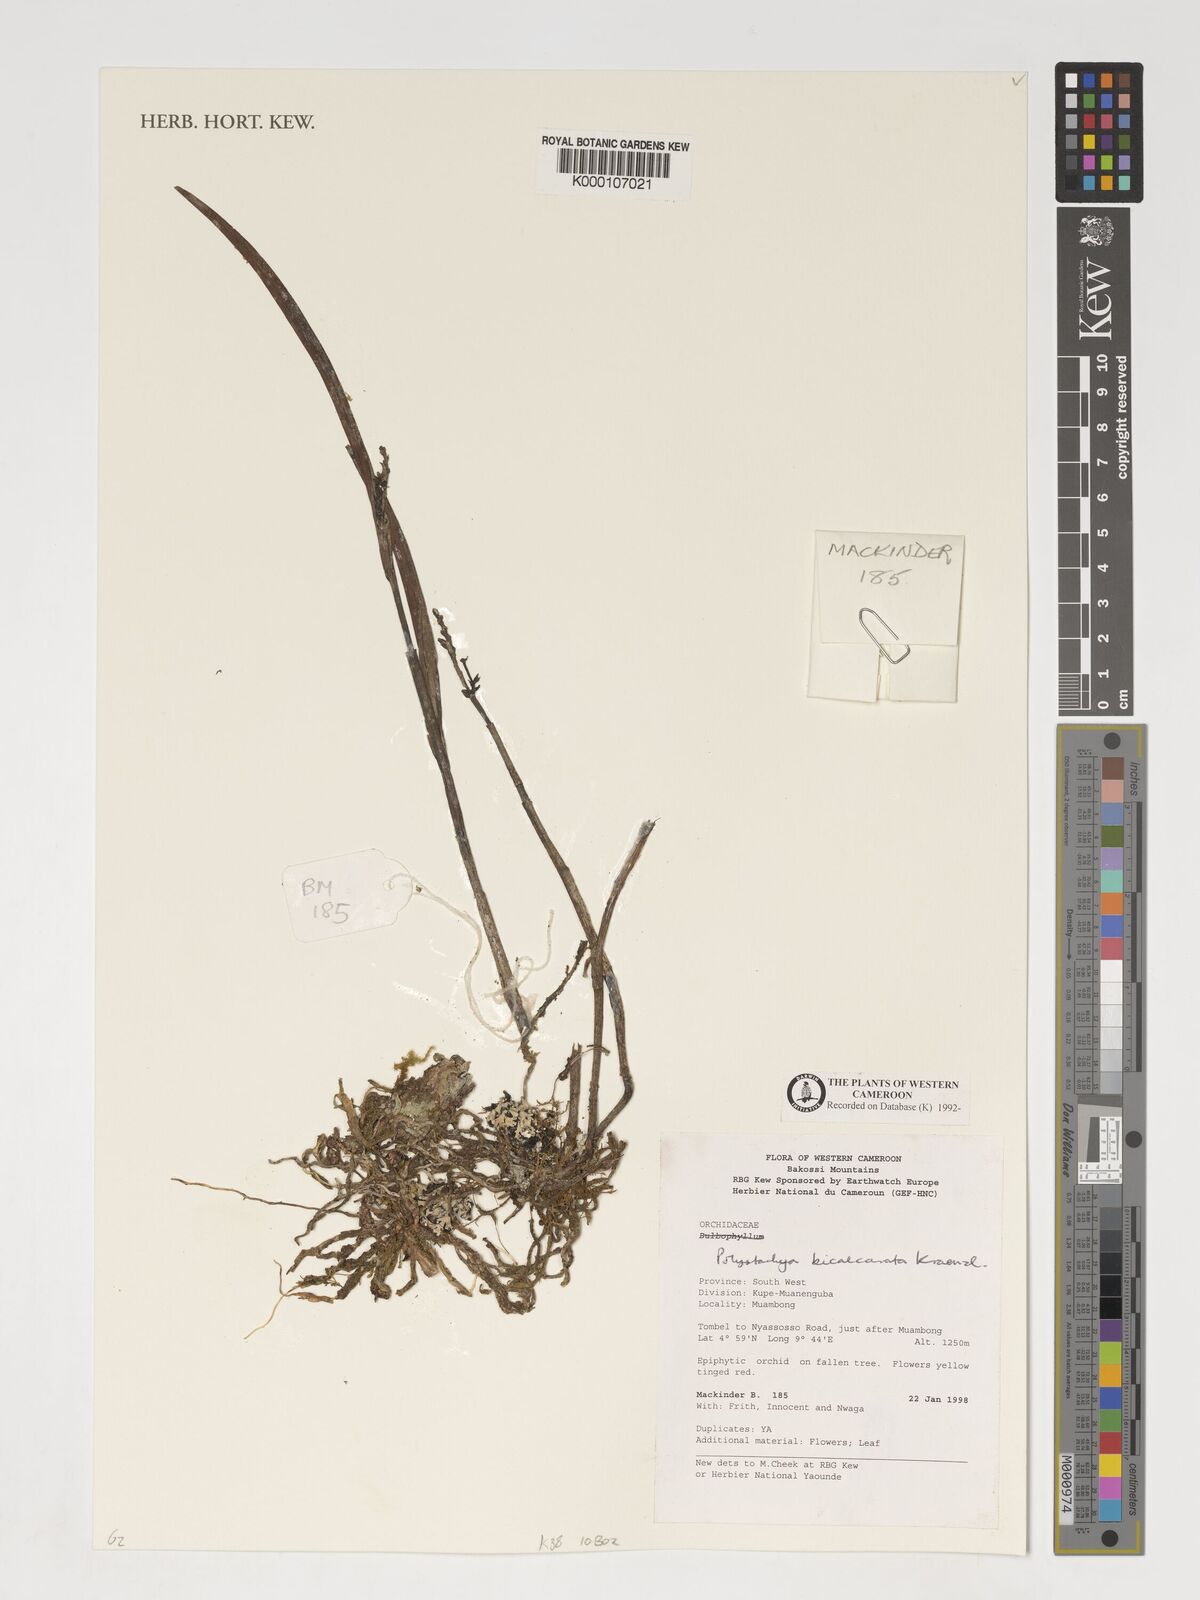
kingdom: Plantae
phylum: Tracheophyta
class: Liliopsida
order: Asparagales
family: Orchidaceae
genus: Polystachya
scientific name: Polystachya bicalcarata
